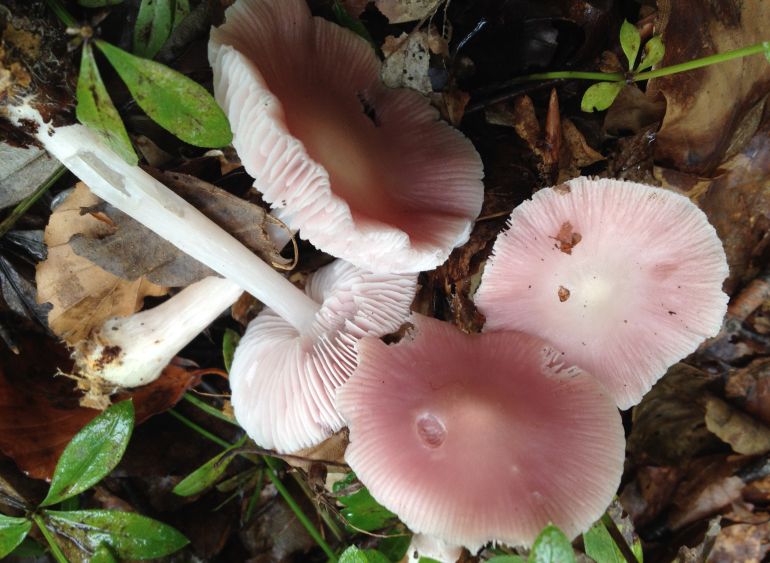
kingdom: Fungi
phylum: Basidiomycota
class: Agaricomycetes
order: Agaricales
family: Mycenaceae
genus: Mycena
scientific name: Mycena rosea
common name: rosa huesvamp
